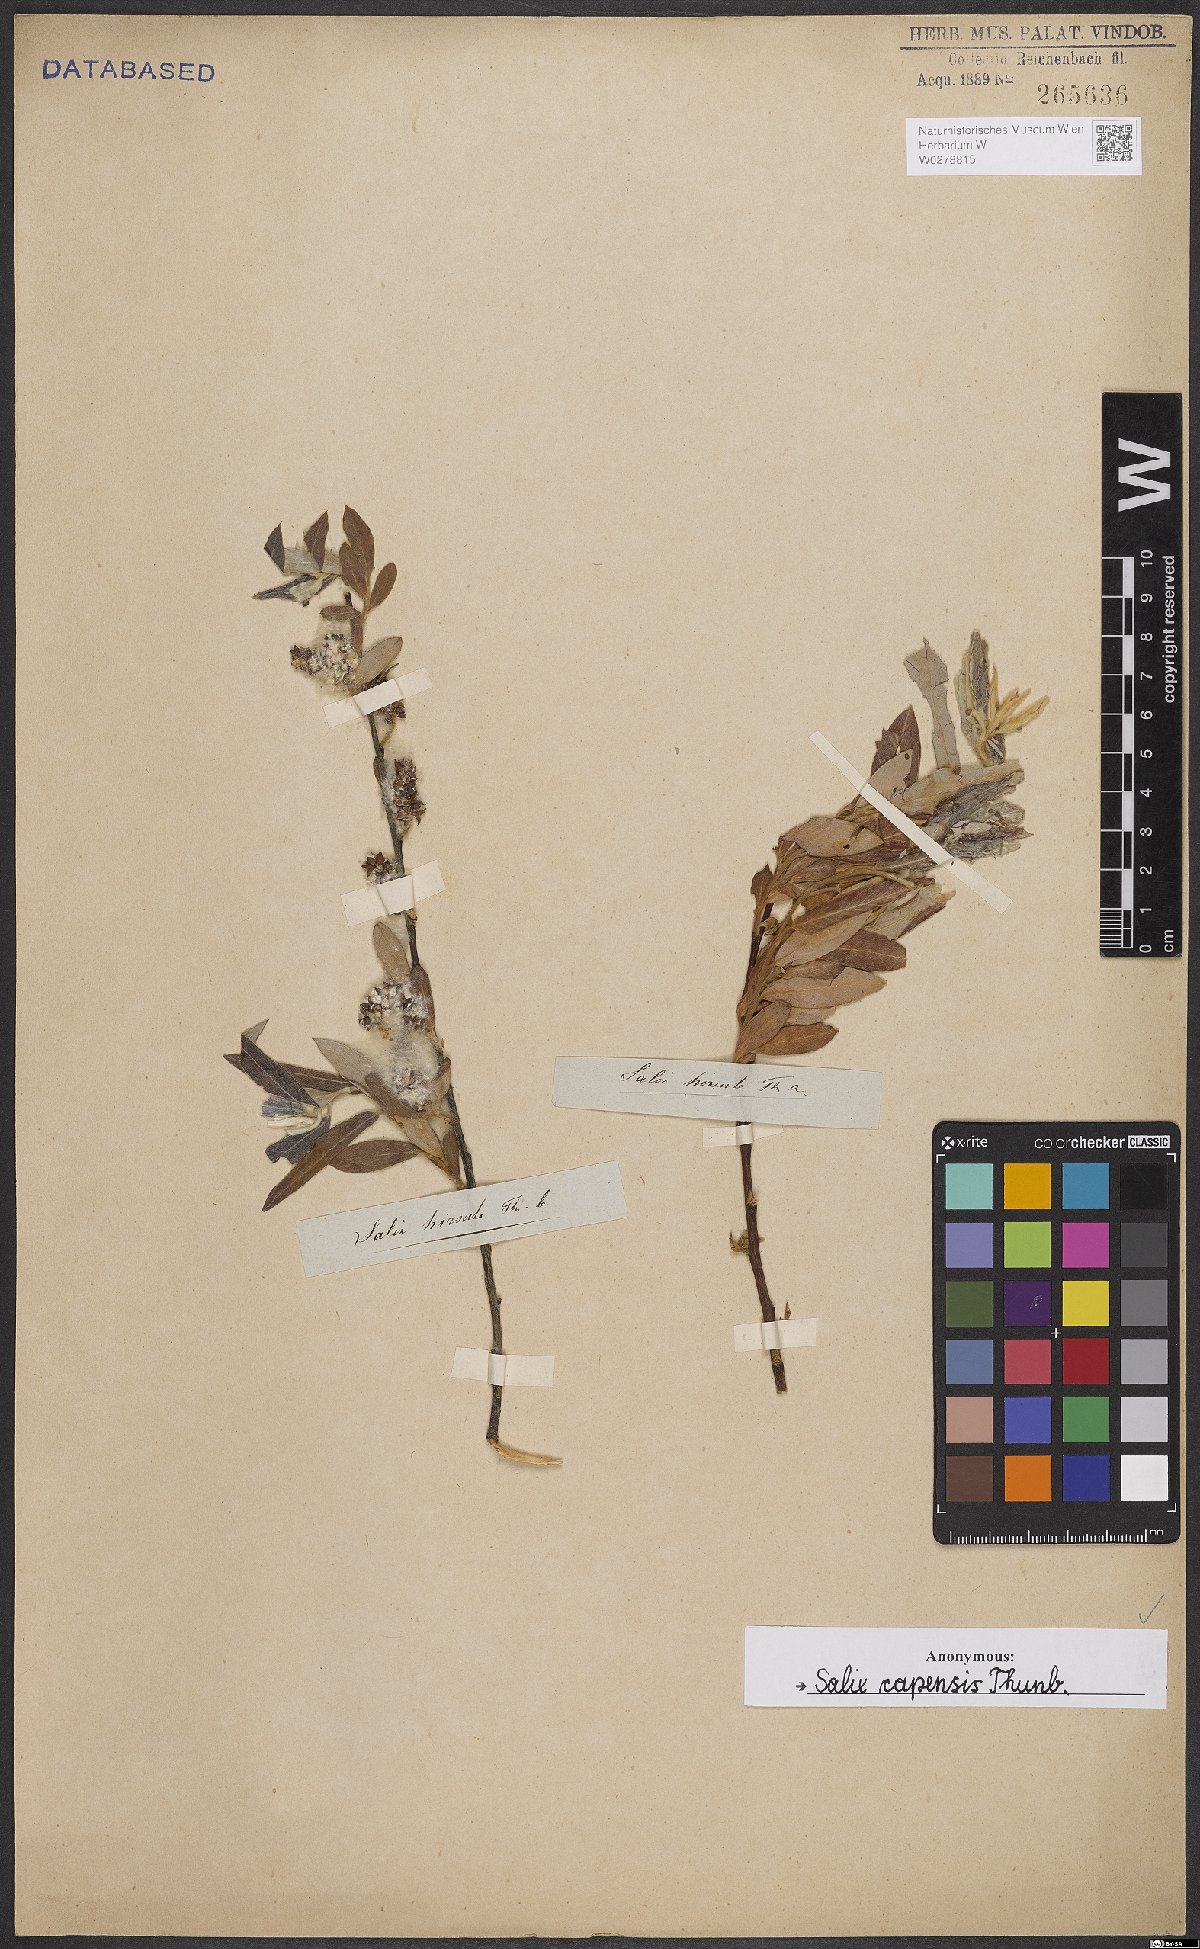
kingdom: Plantae
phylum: Tracheophyta
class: Magnoliopsida
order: Malpighiales
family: Salicaceae
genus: Salix
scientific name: Salix mucronata
